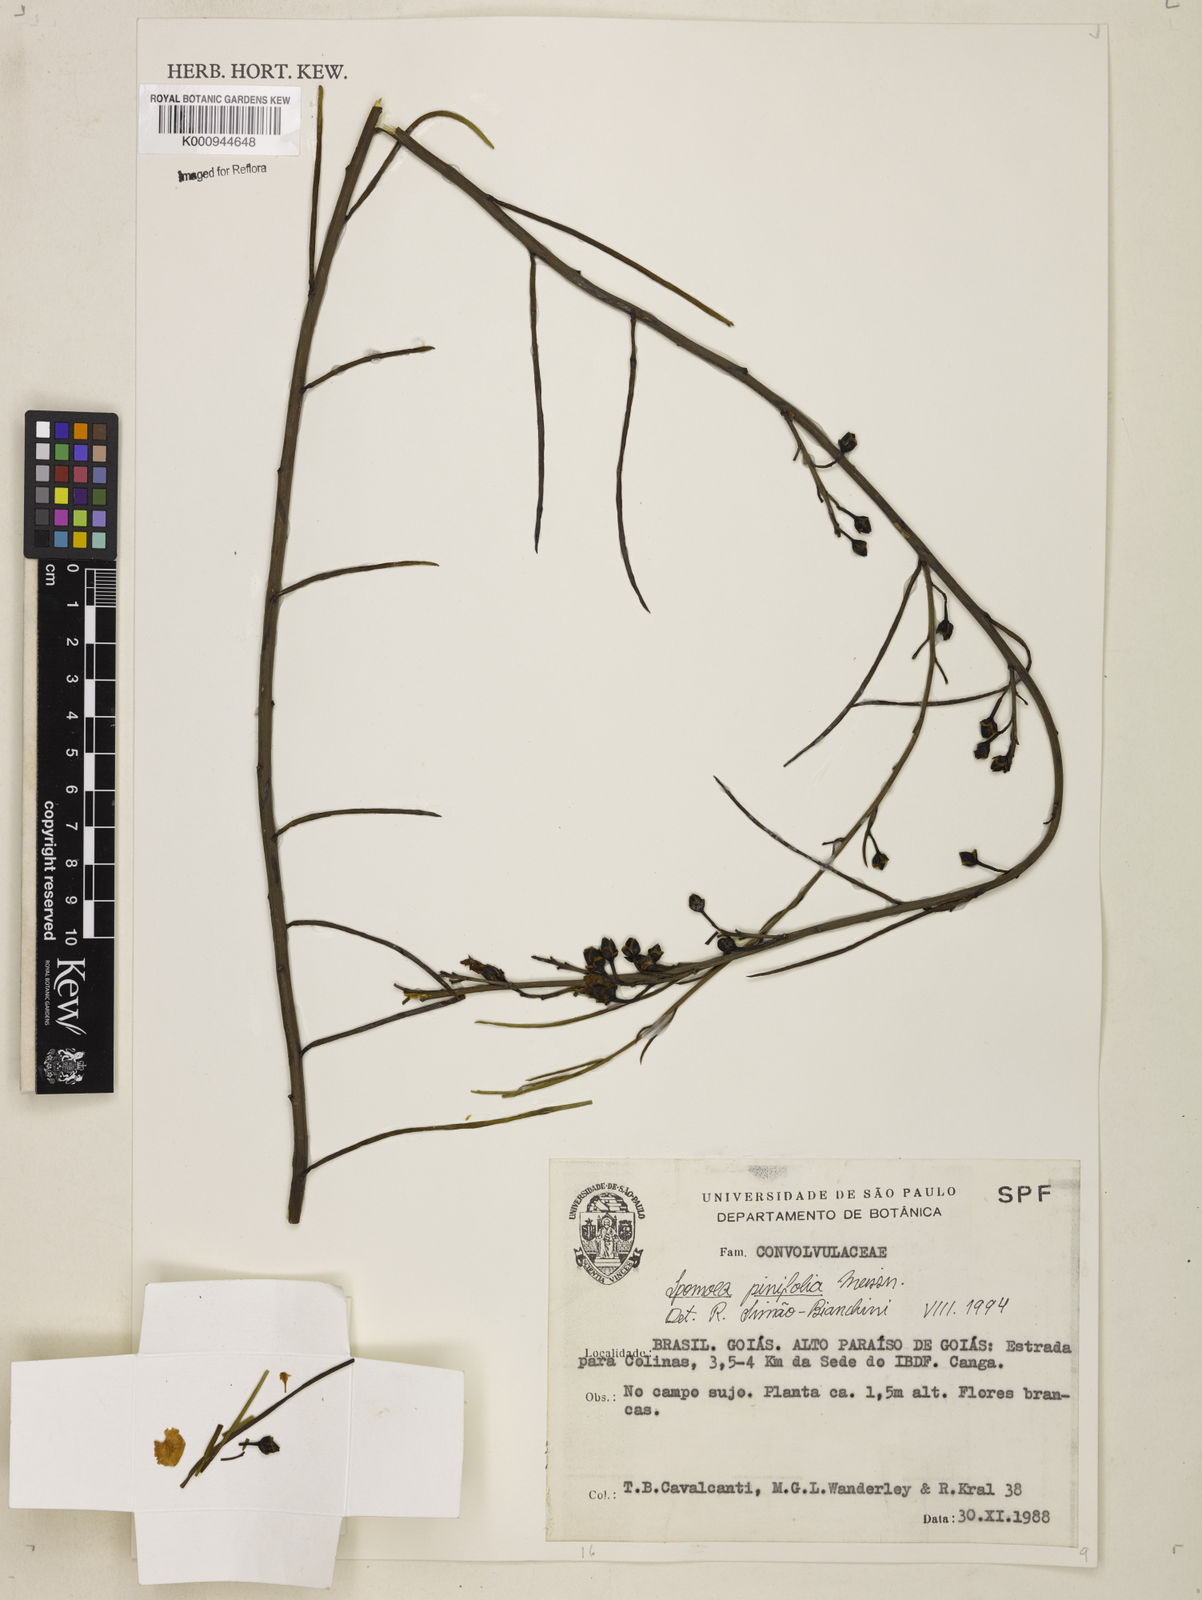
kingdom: Plantae
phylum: Tracheophyta
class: Magnoliopsida
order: Solanales
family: Convolvulaceae
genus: Ipomoea
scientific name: Ipomoea pinifolia
